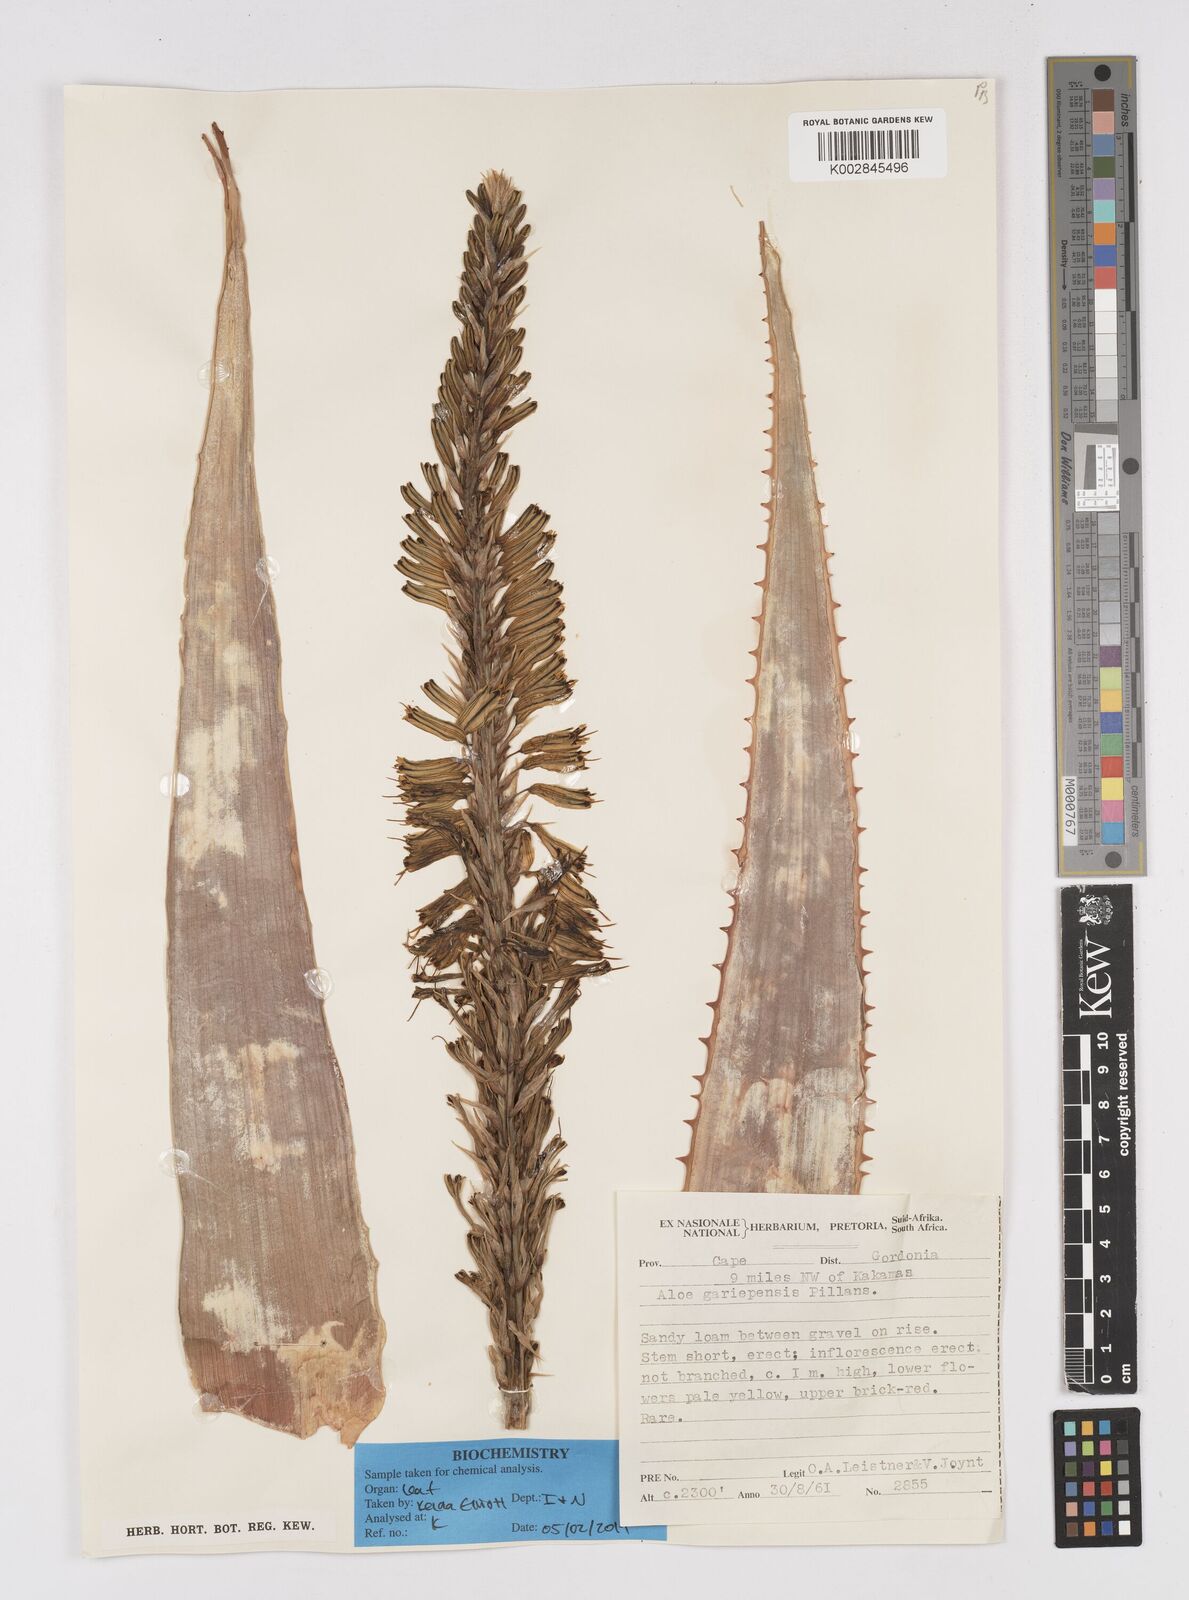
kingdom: Plantae
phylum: Tracheophyta
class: Liliopsida
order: Asparagales
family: Asphodelaceae
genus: Aloe
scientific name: Aloe gariepensis
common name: Orange river aloe
